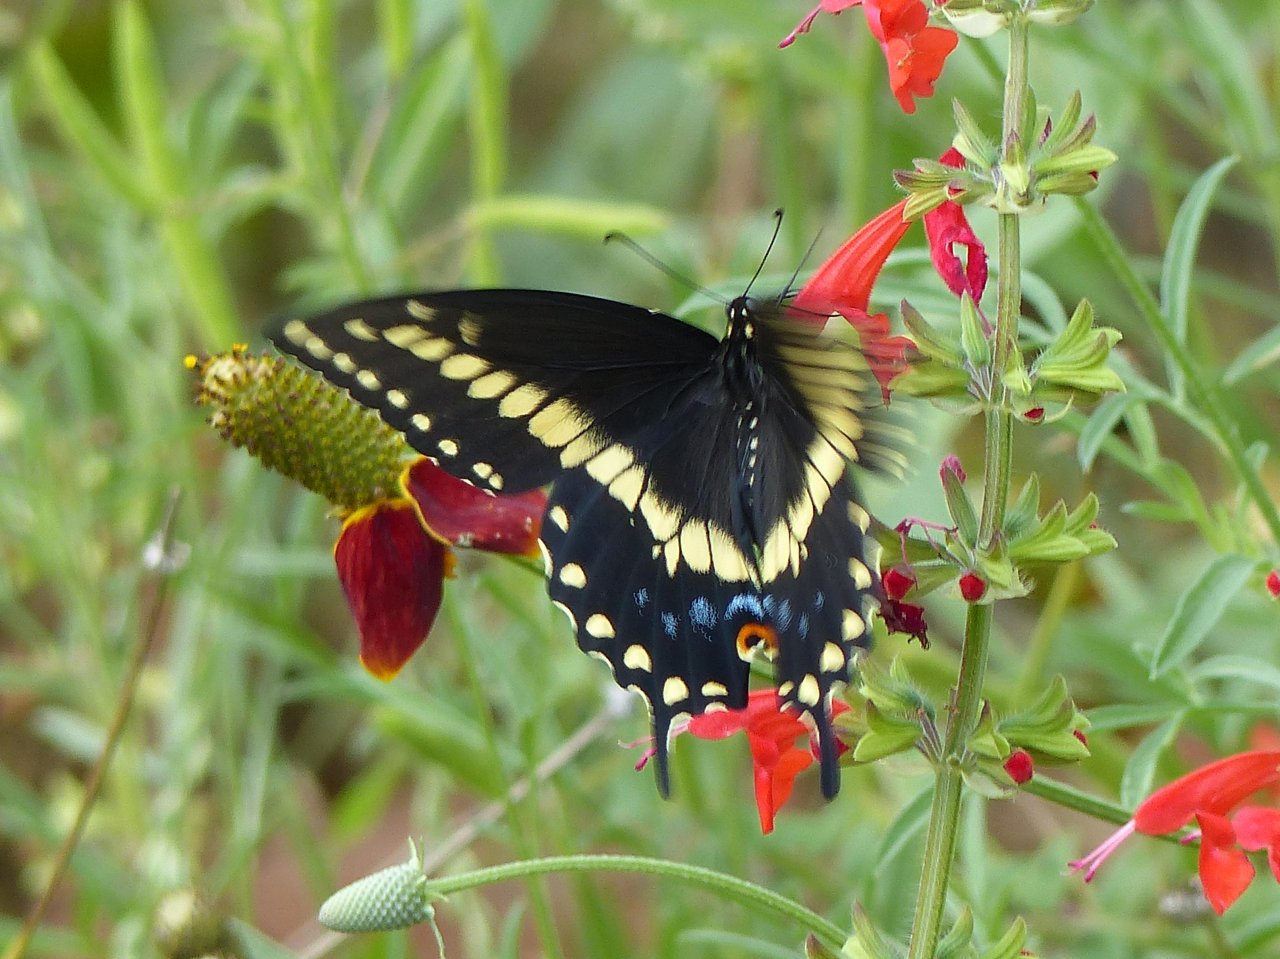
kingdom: Animalia
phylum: Arthropoda
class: Insecta
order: Lepidoptera
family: Papilionidae
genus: Papilio
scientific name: Papilio polyxenes
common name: Black Swallowtail
